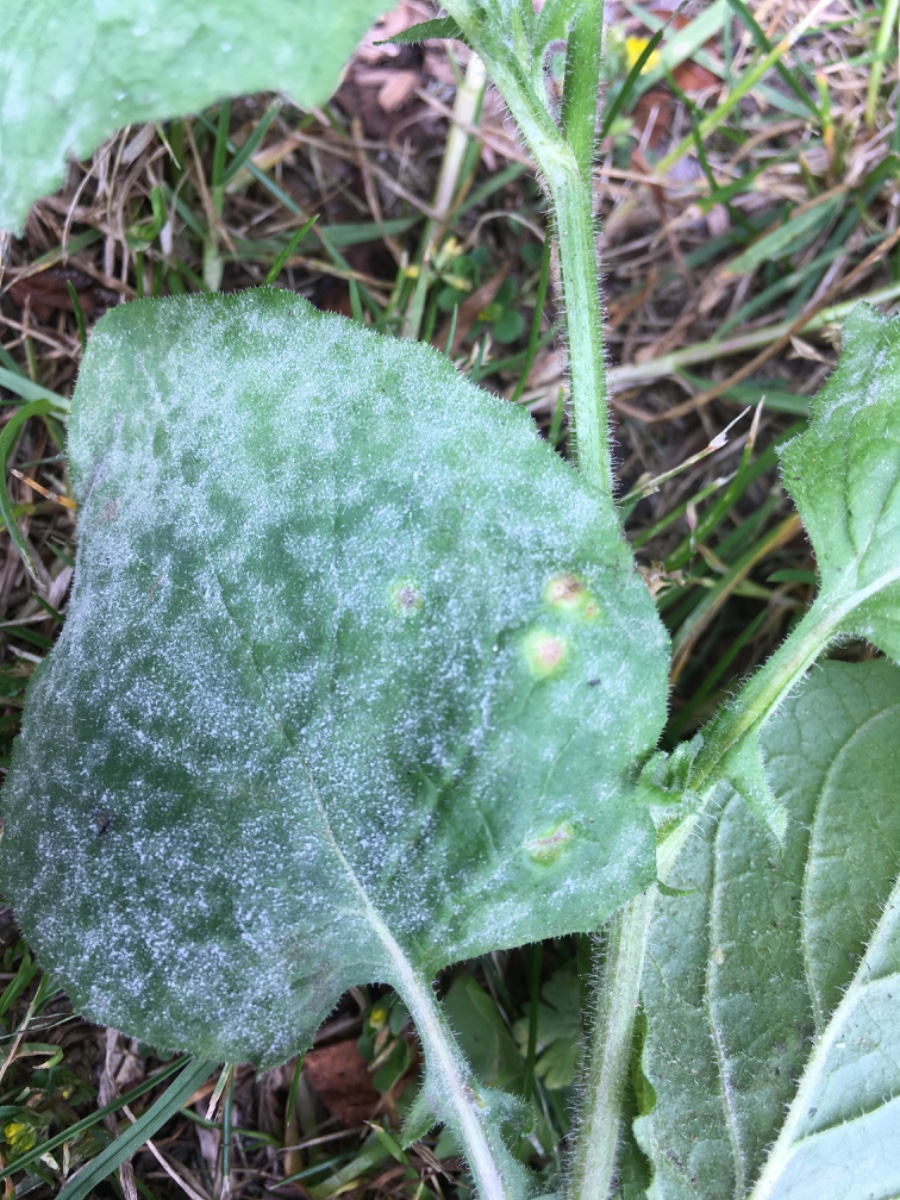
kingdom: Fungi
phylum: Basidiomycota
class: Pucciniomycetes
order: Pucciniales
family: Pucciniaceae
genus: Puccinia
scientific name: Puccinia lapsanae
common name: Nipplewort rust
